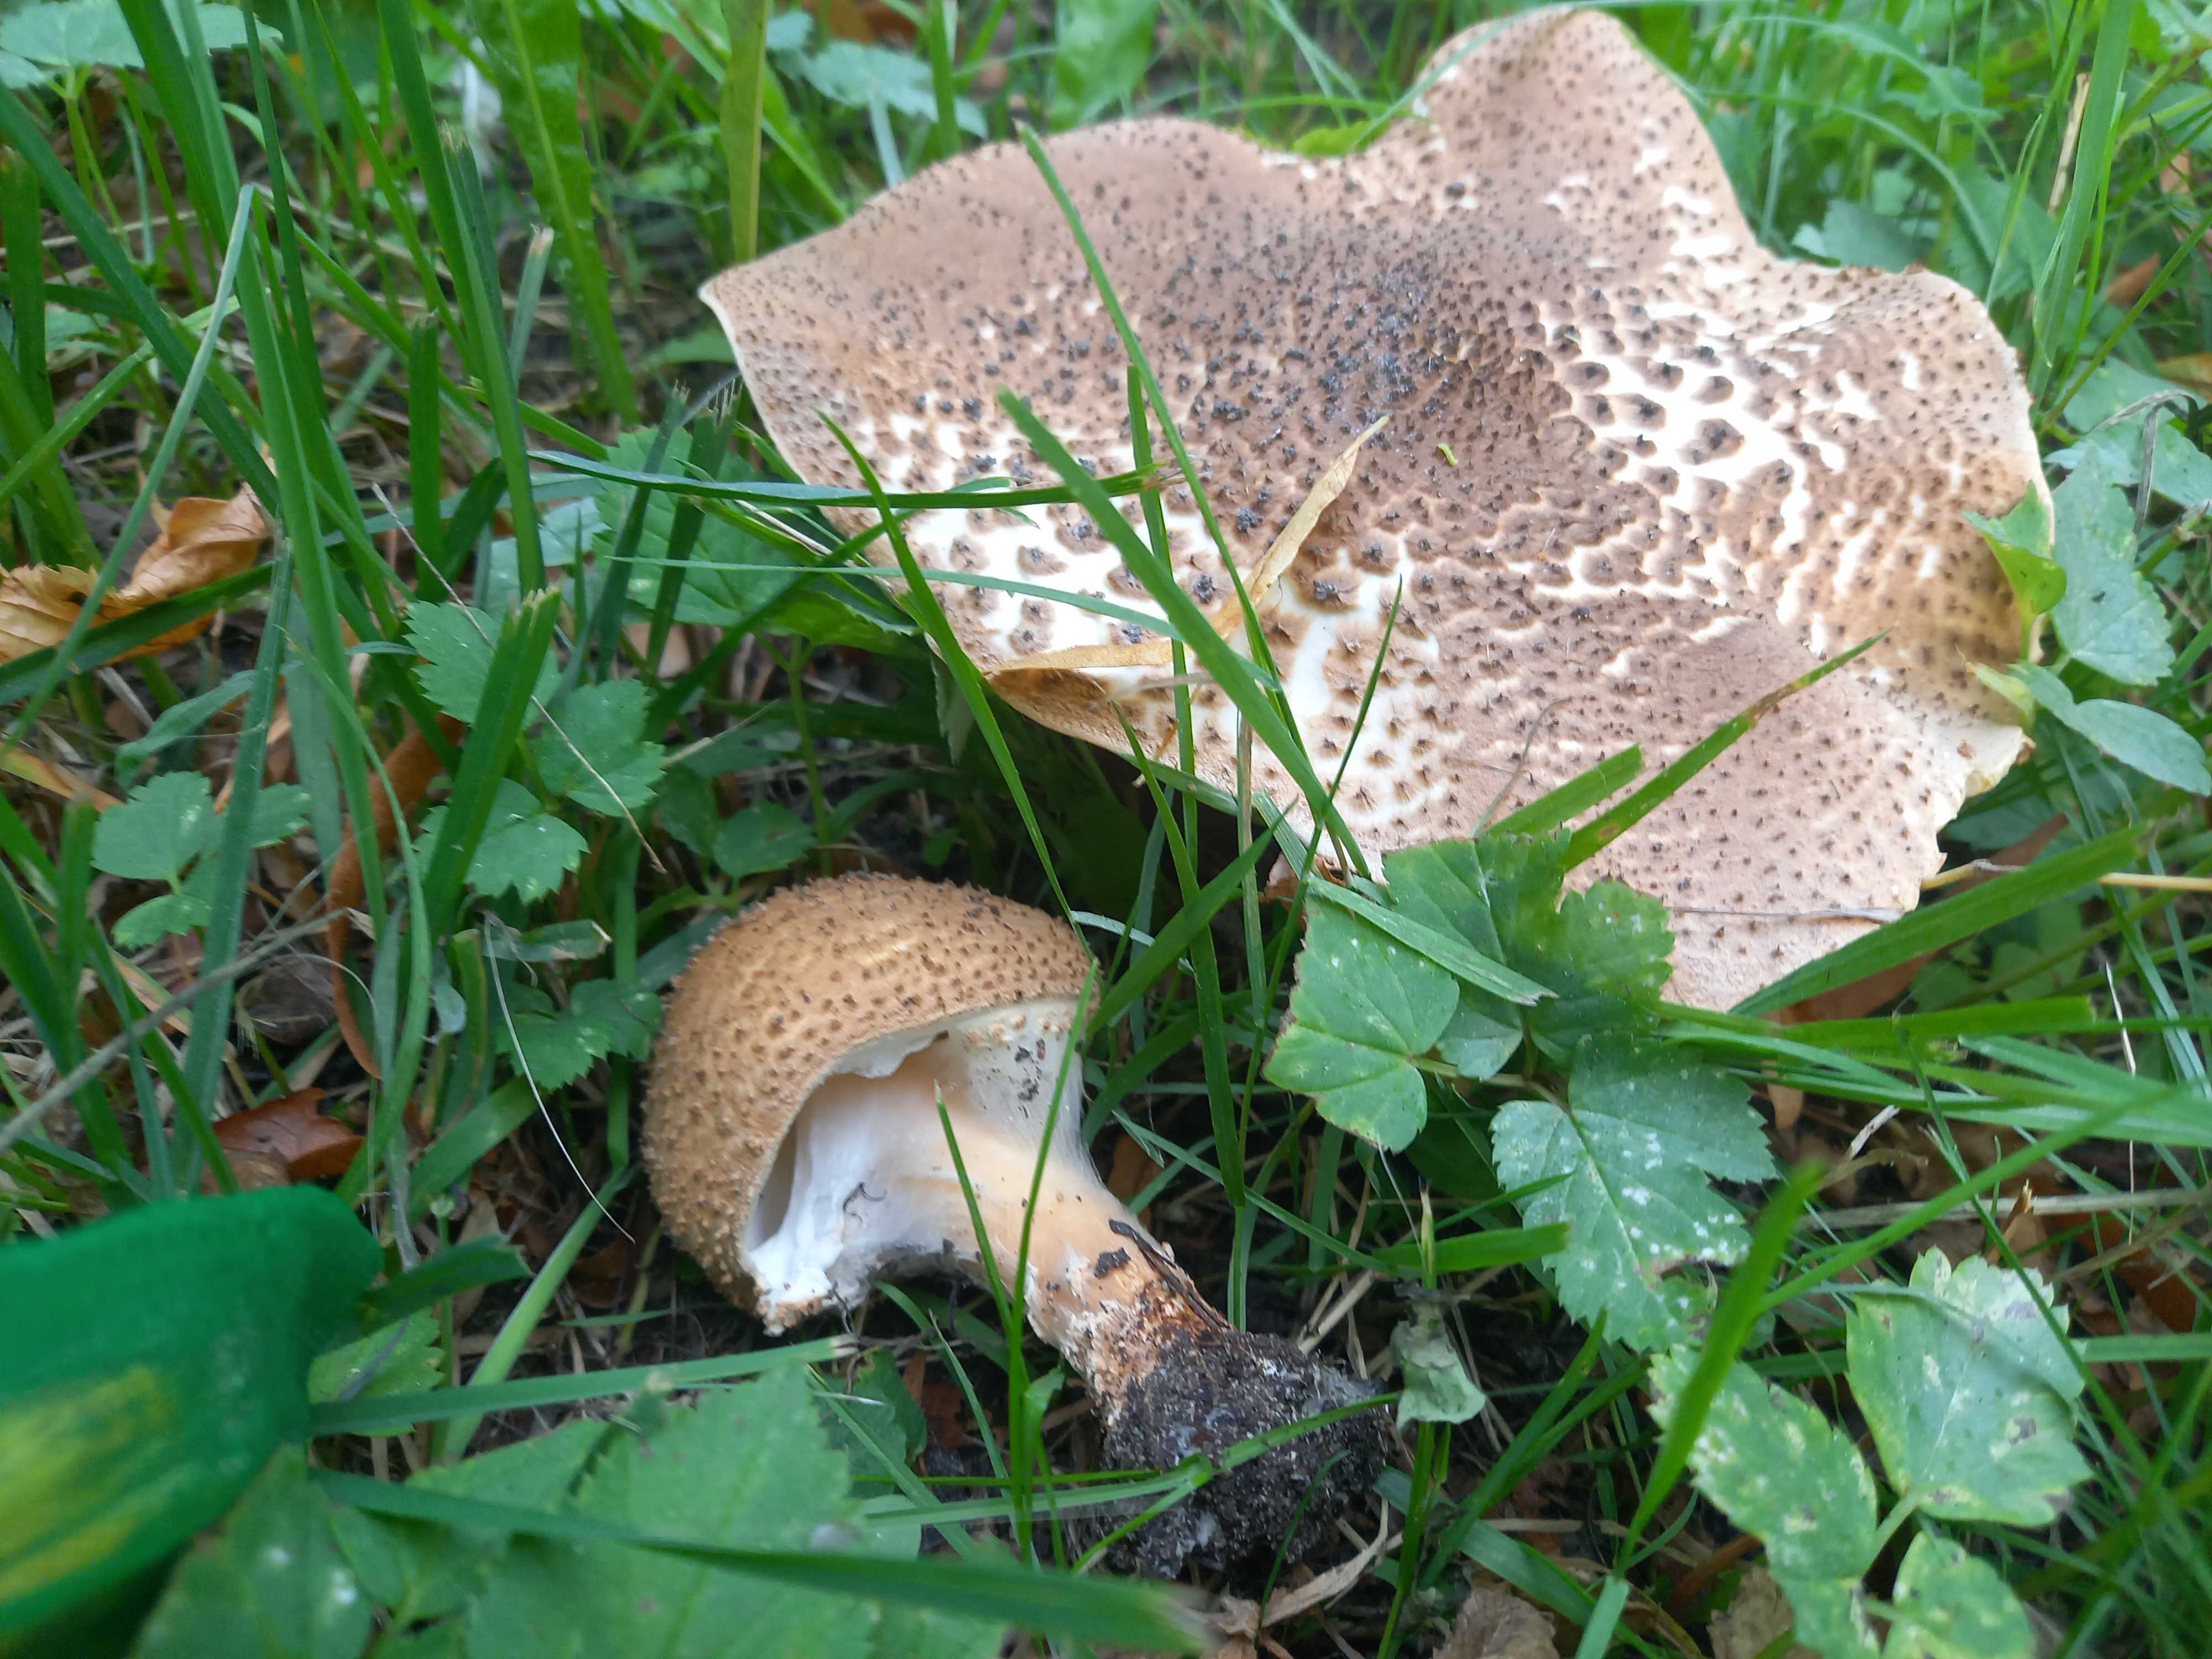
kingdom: Fungi
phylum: Basidiomycota
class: Agaricomycetes
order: Agaricales
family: Agaricaceae
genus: Echinoderma
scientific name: Echinoderma asperum
